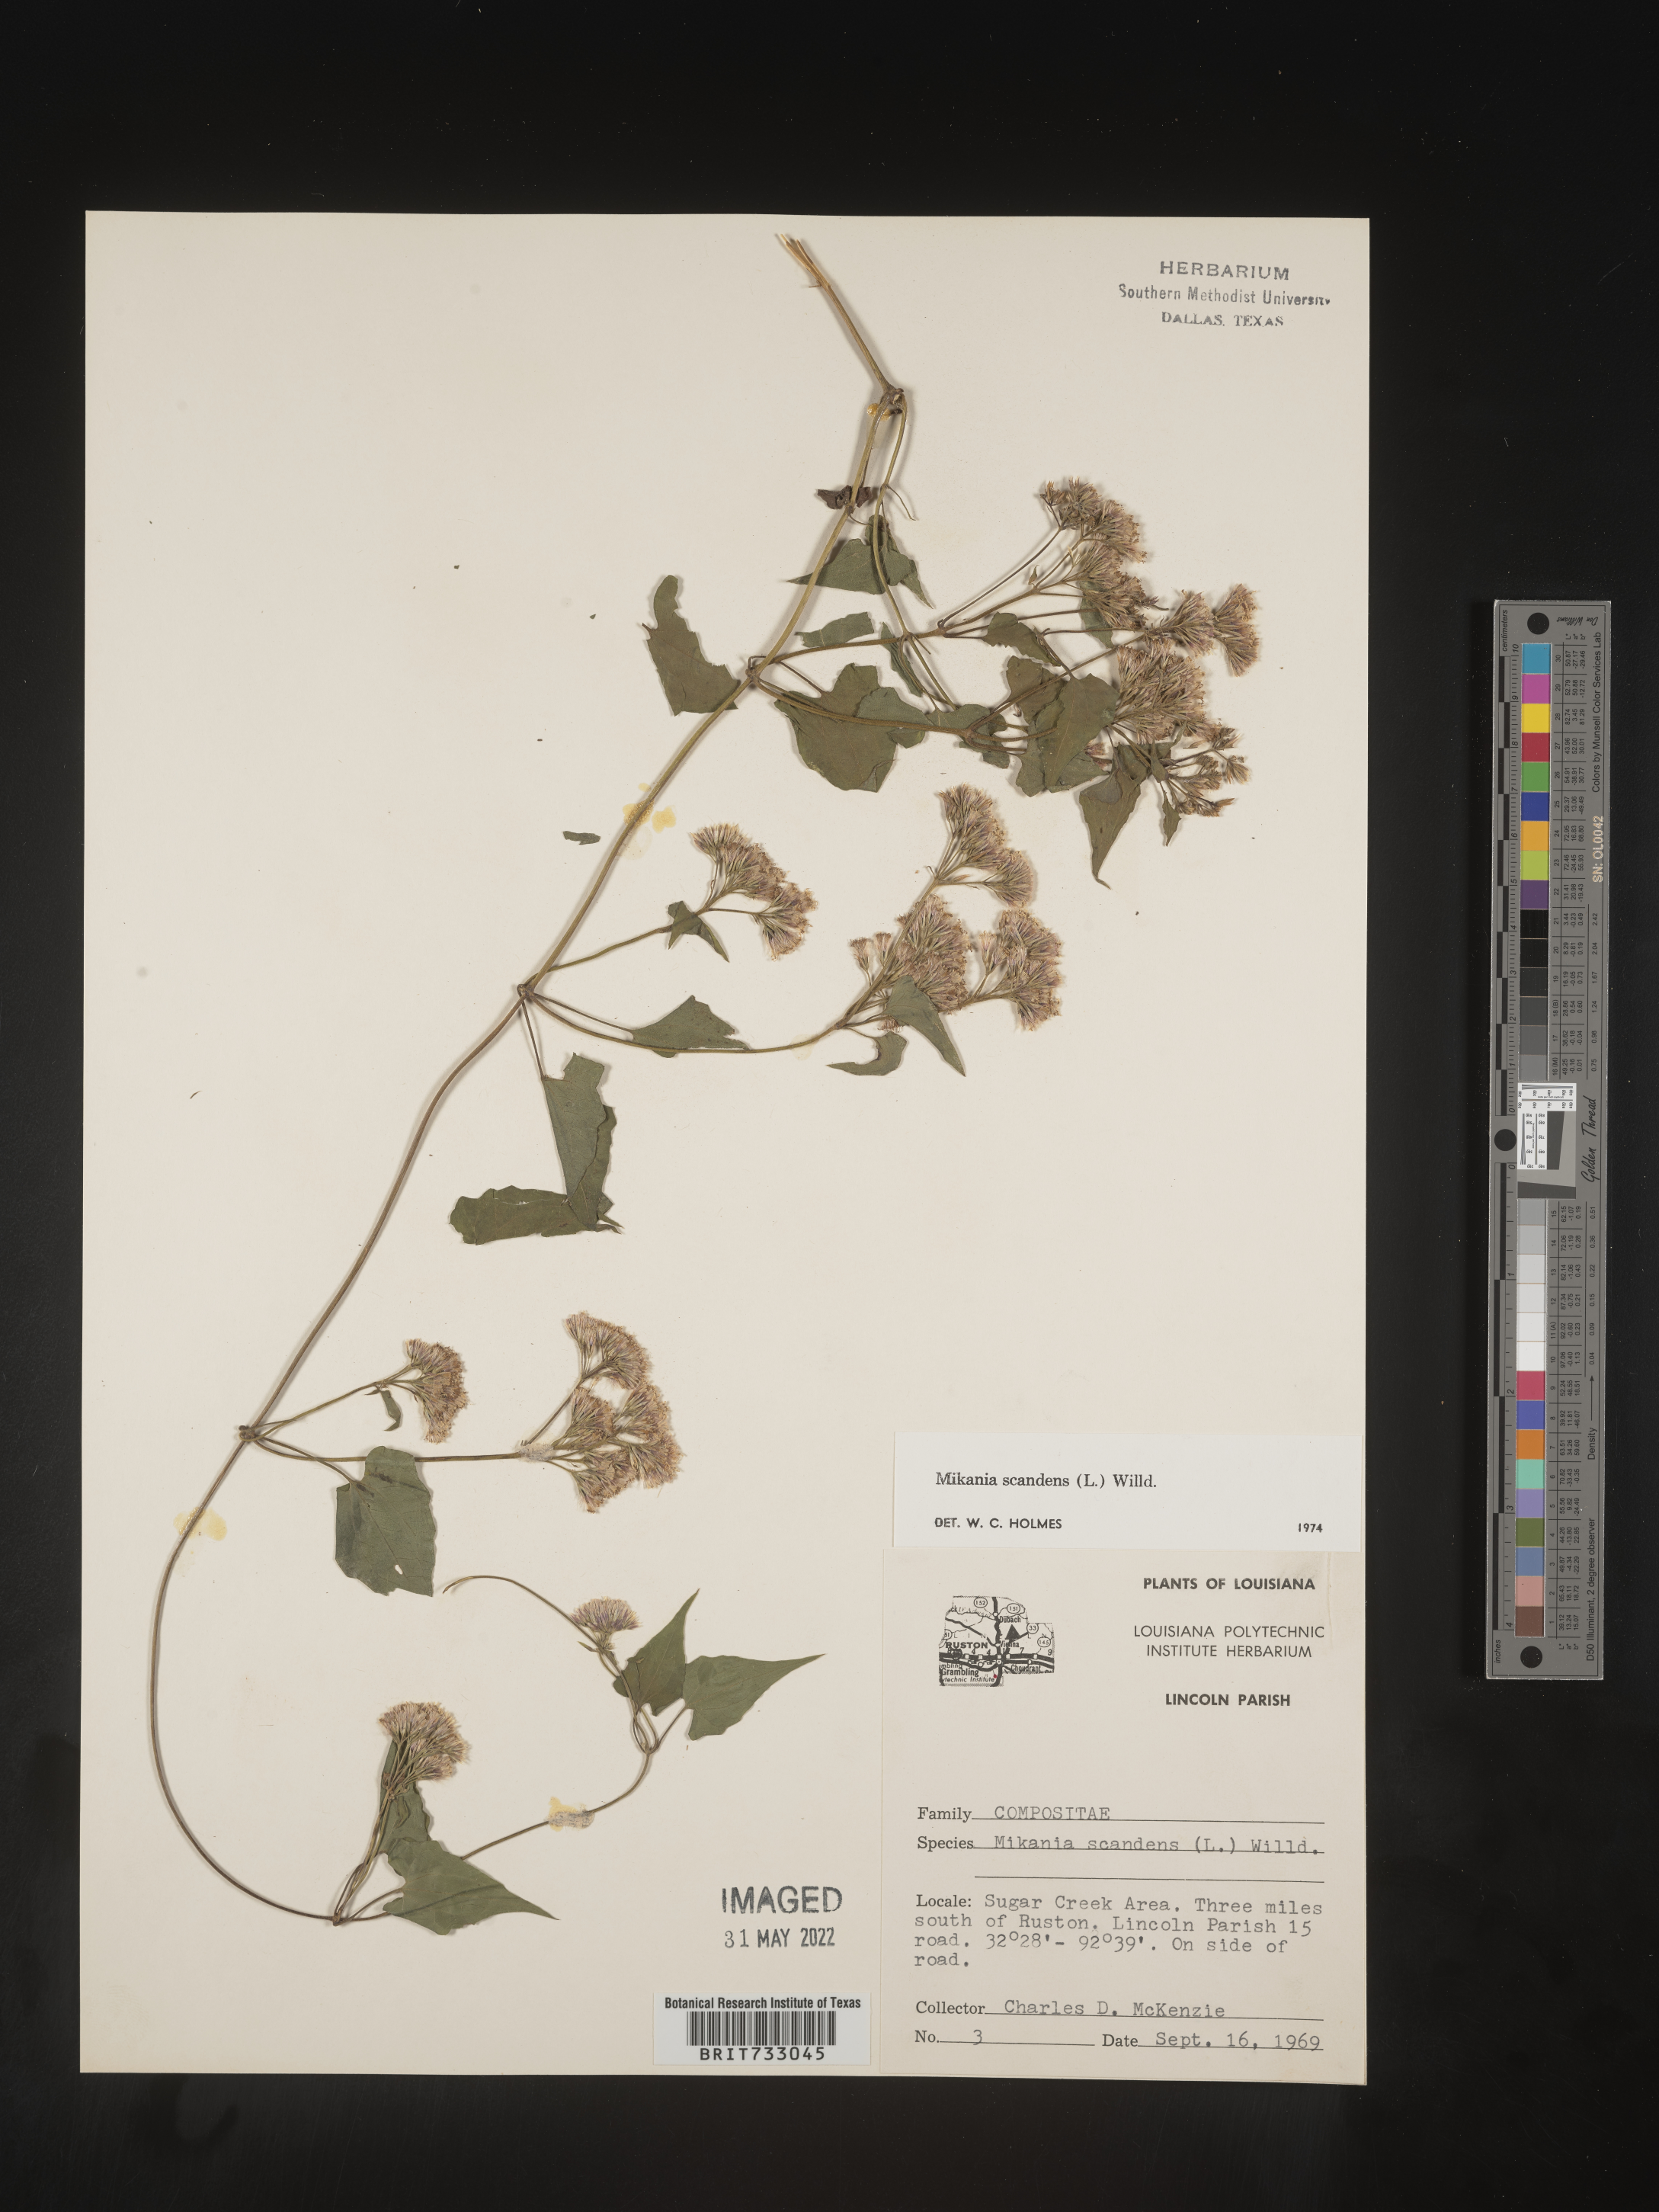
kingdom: Plantae
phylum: Tracheophyta
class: Magnoliopsida
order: Asterales
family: Asteraceae
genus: Mikania
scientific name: Mikania scandens
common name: Climbing hempvine
